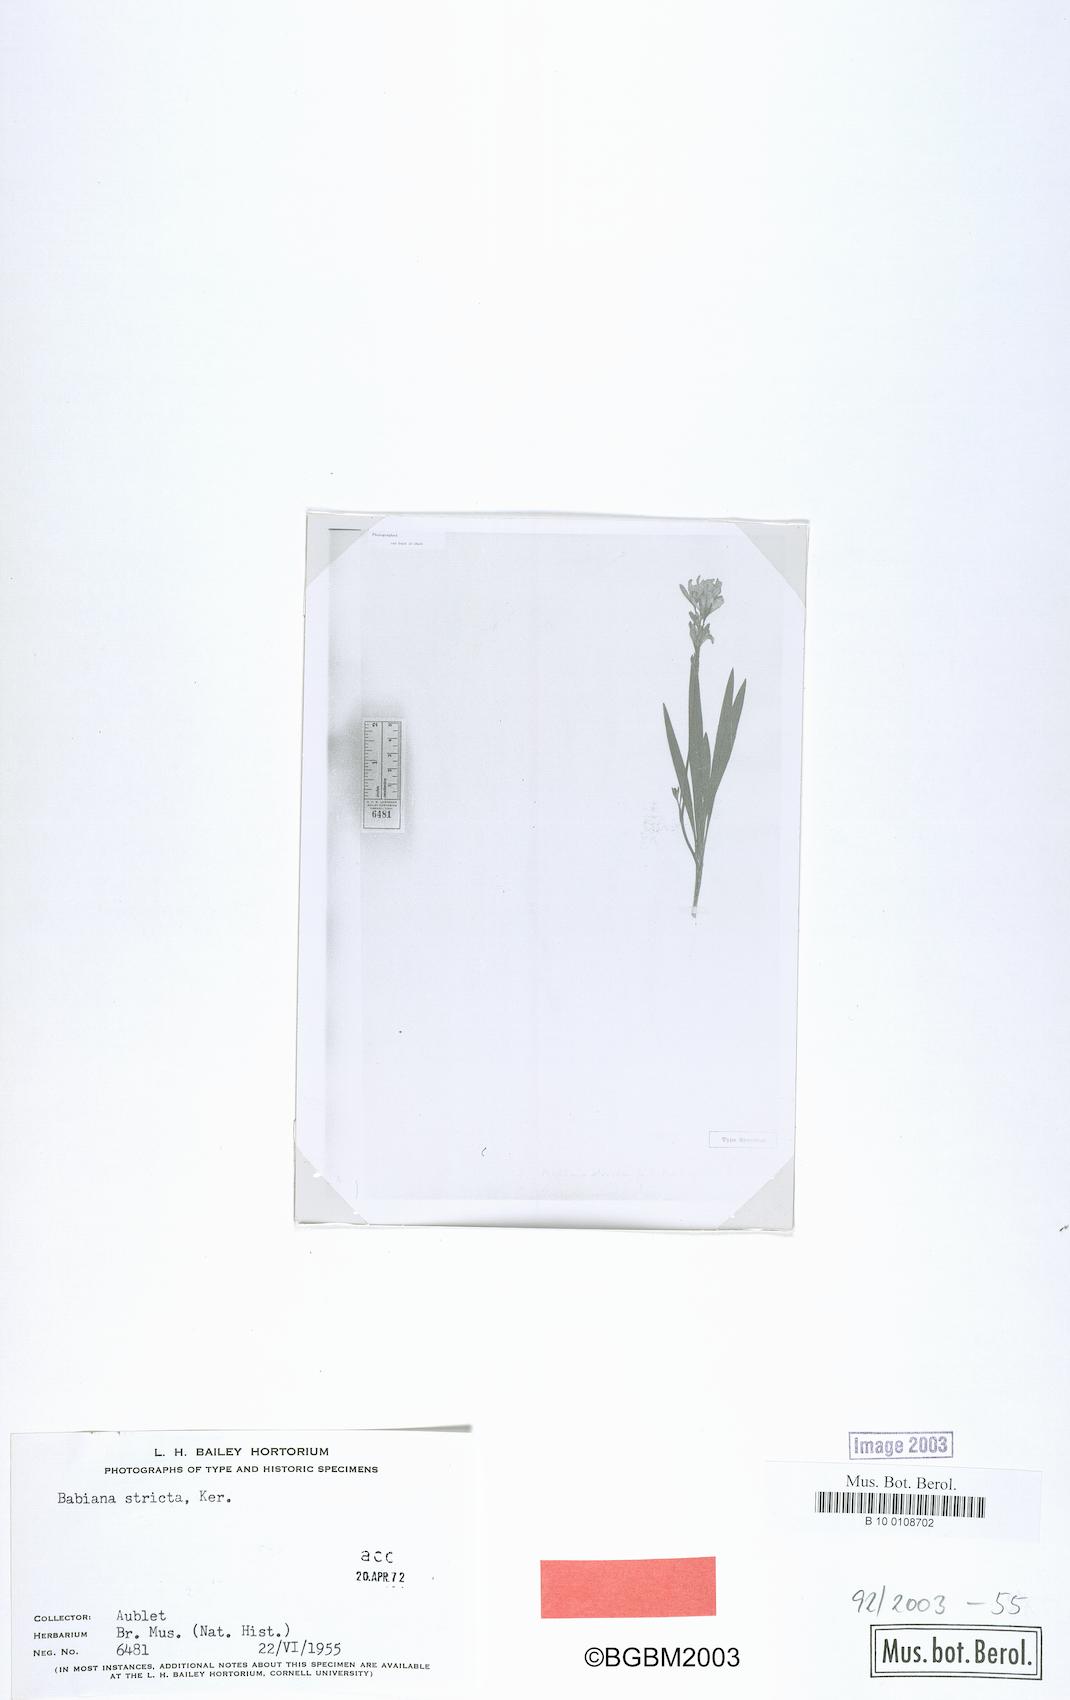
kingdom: Plantae
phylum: Tracheophyta
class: Liliopsida
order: Asparagales
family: Iridaceae
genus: Babiana
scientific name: Babiana nervosa
